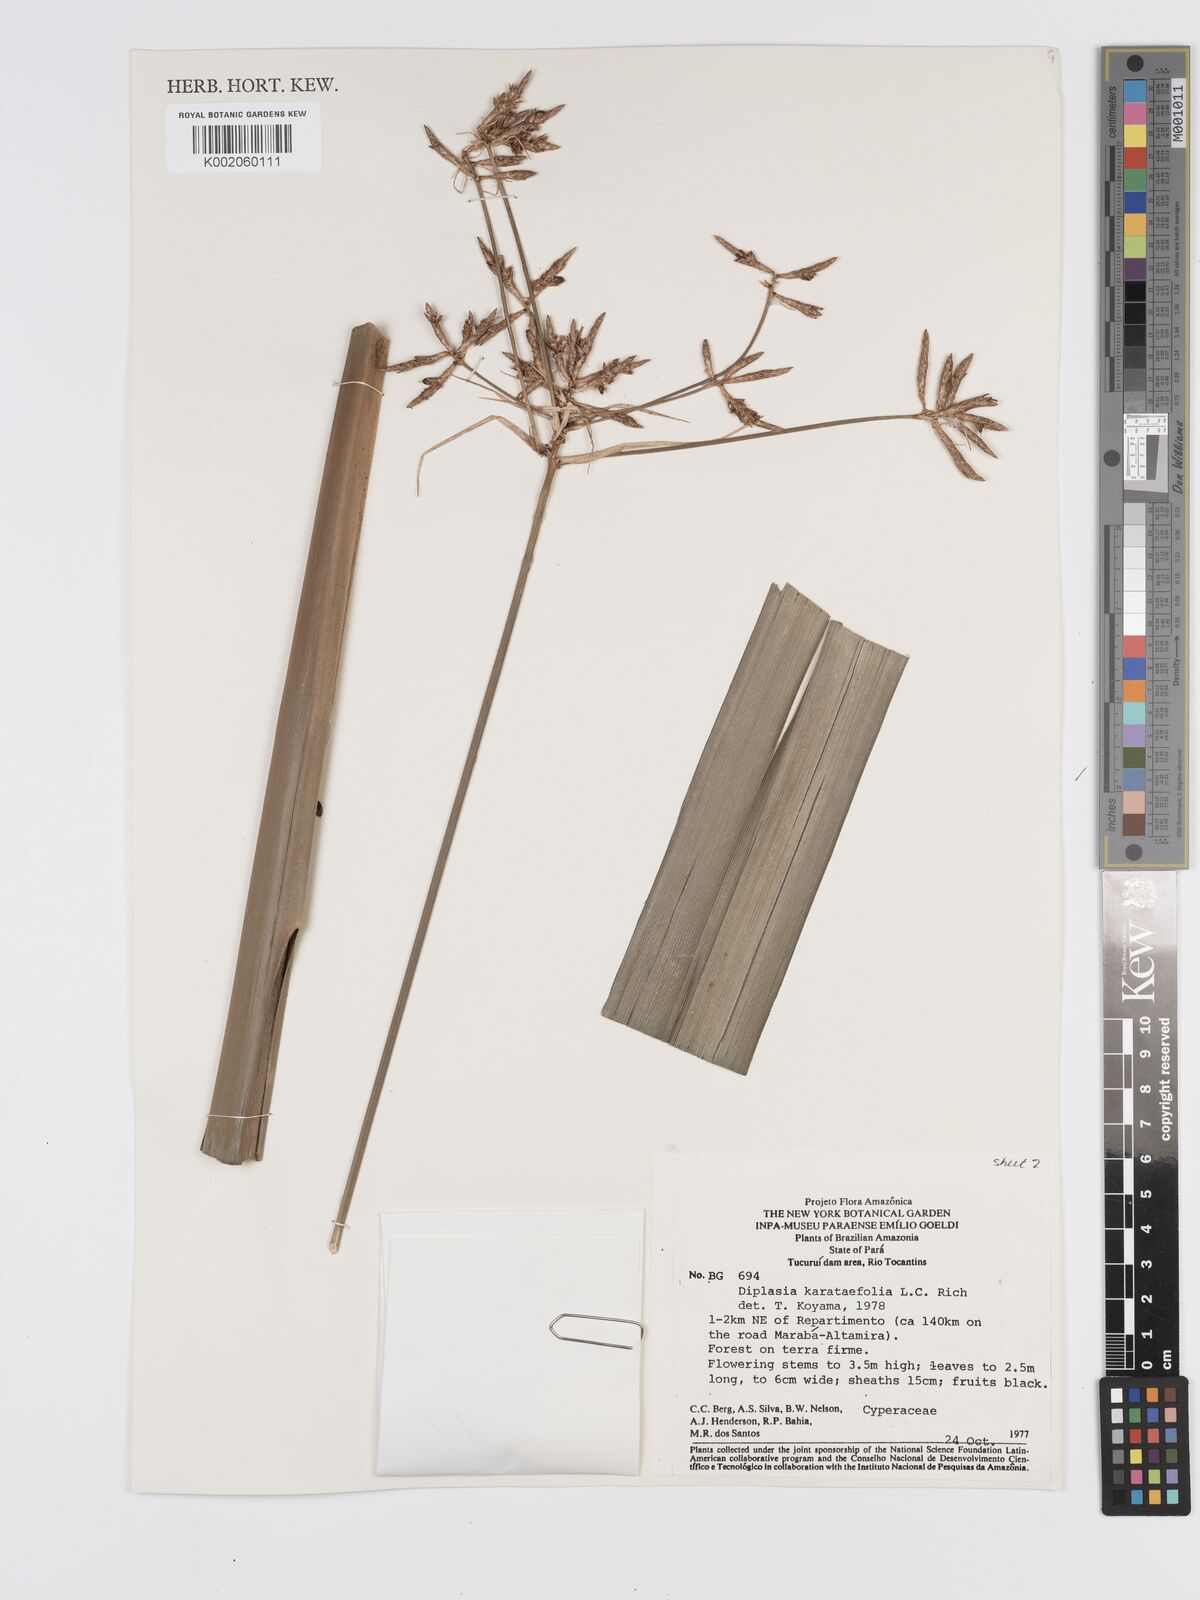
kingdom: Plantae
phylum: Tracheophyta
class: Liliopsida
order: Poales
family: Cyperaceae
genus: Diplasia
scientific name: Diplasia karatifolia
